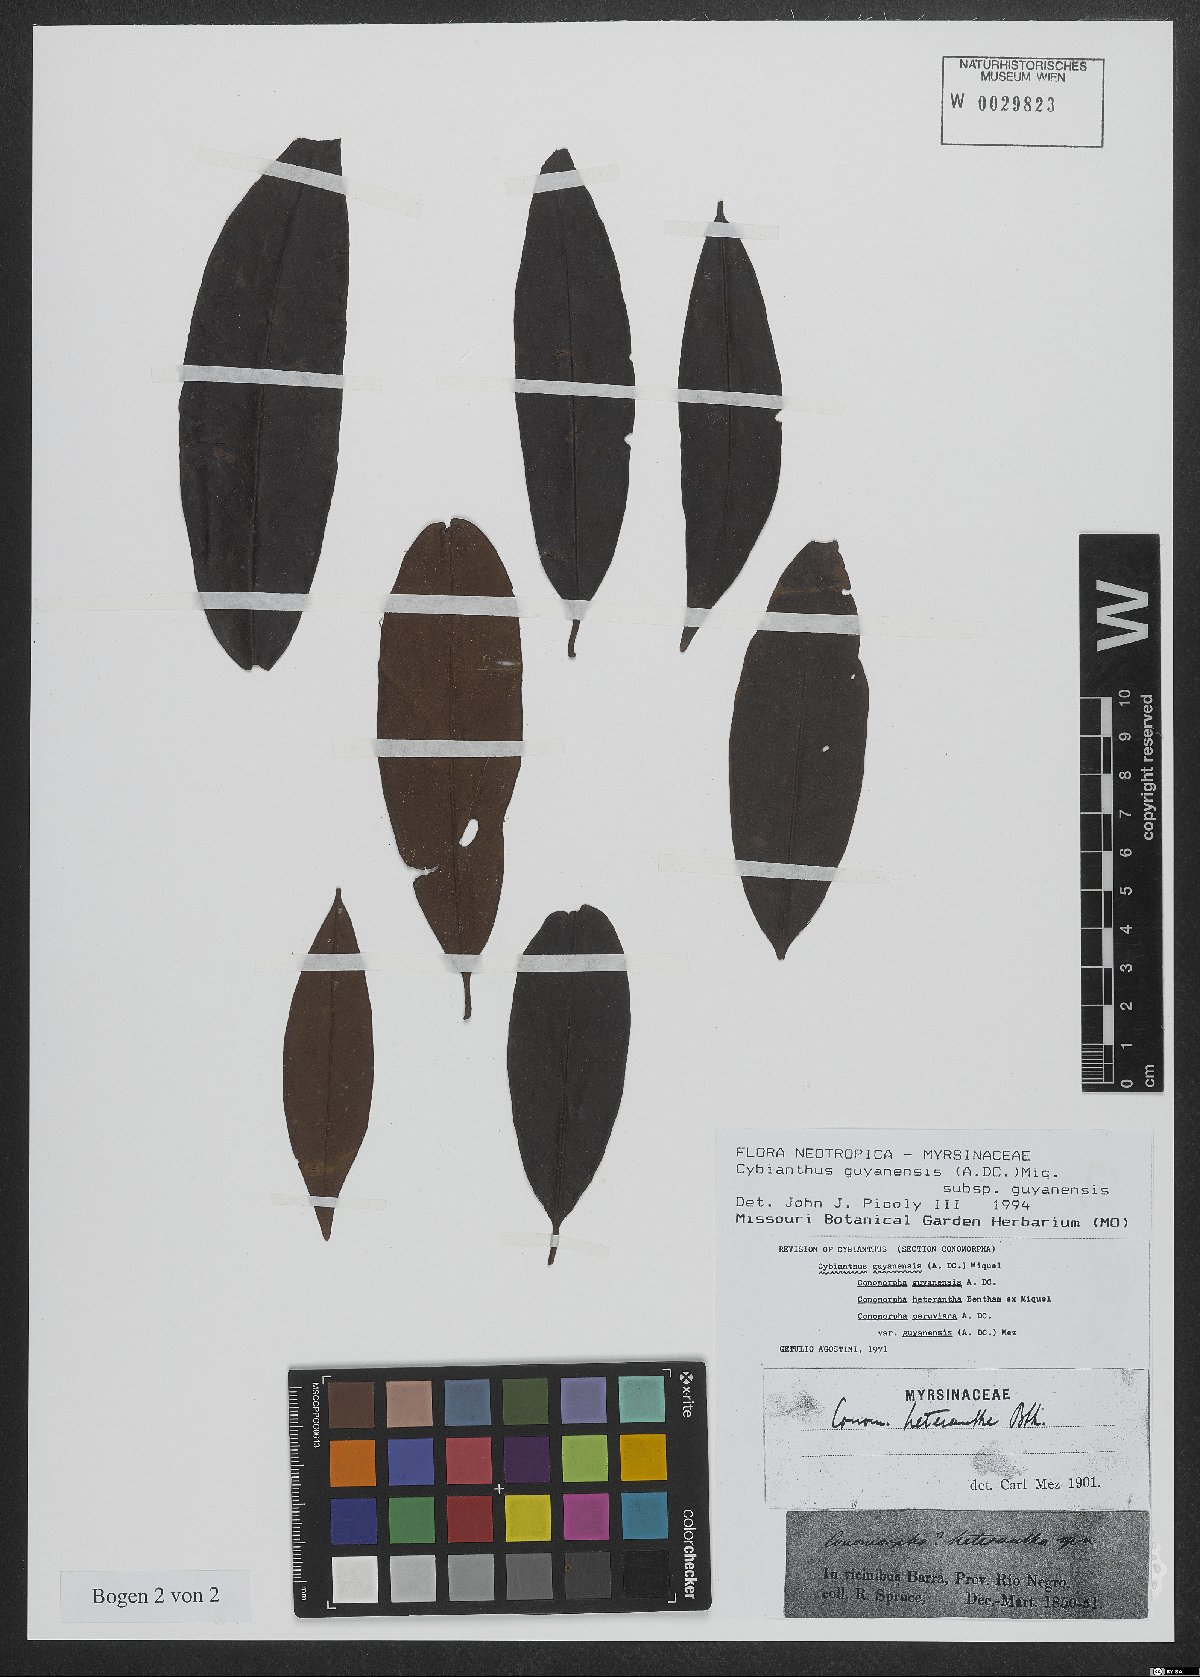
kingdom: Plantae
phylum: Tracheophyta
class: Magnoliopsida
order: Ericales
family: Primulaceae
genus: Cybianthus
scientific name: Cybianthus guyanensis
